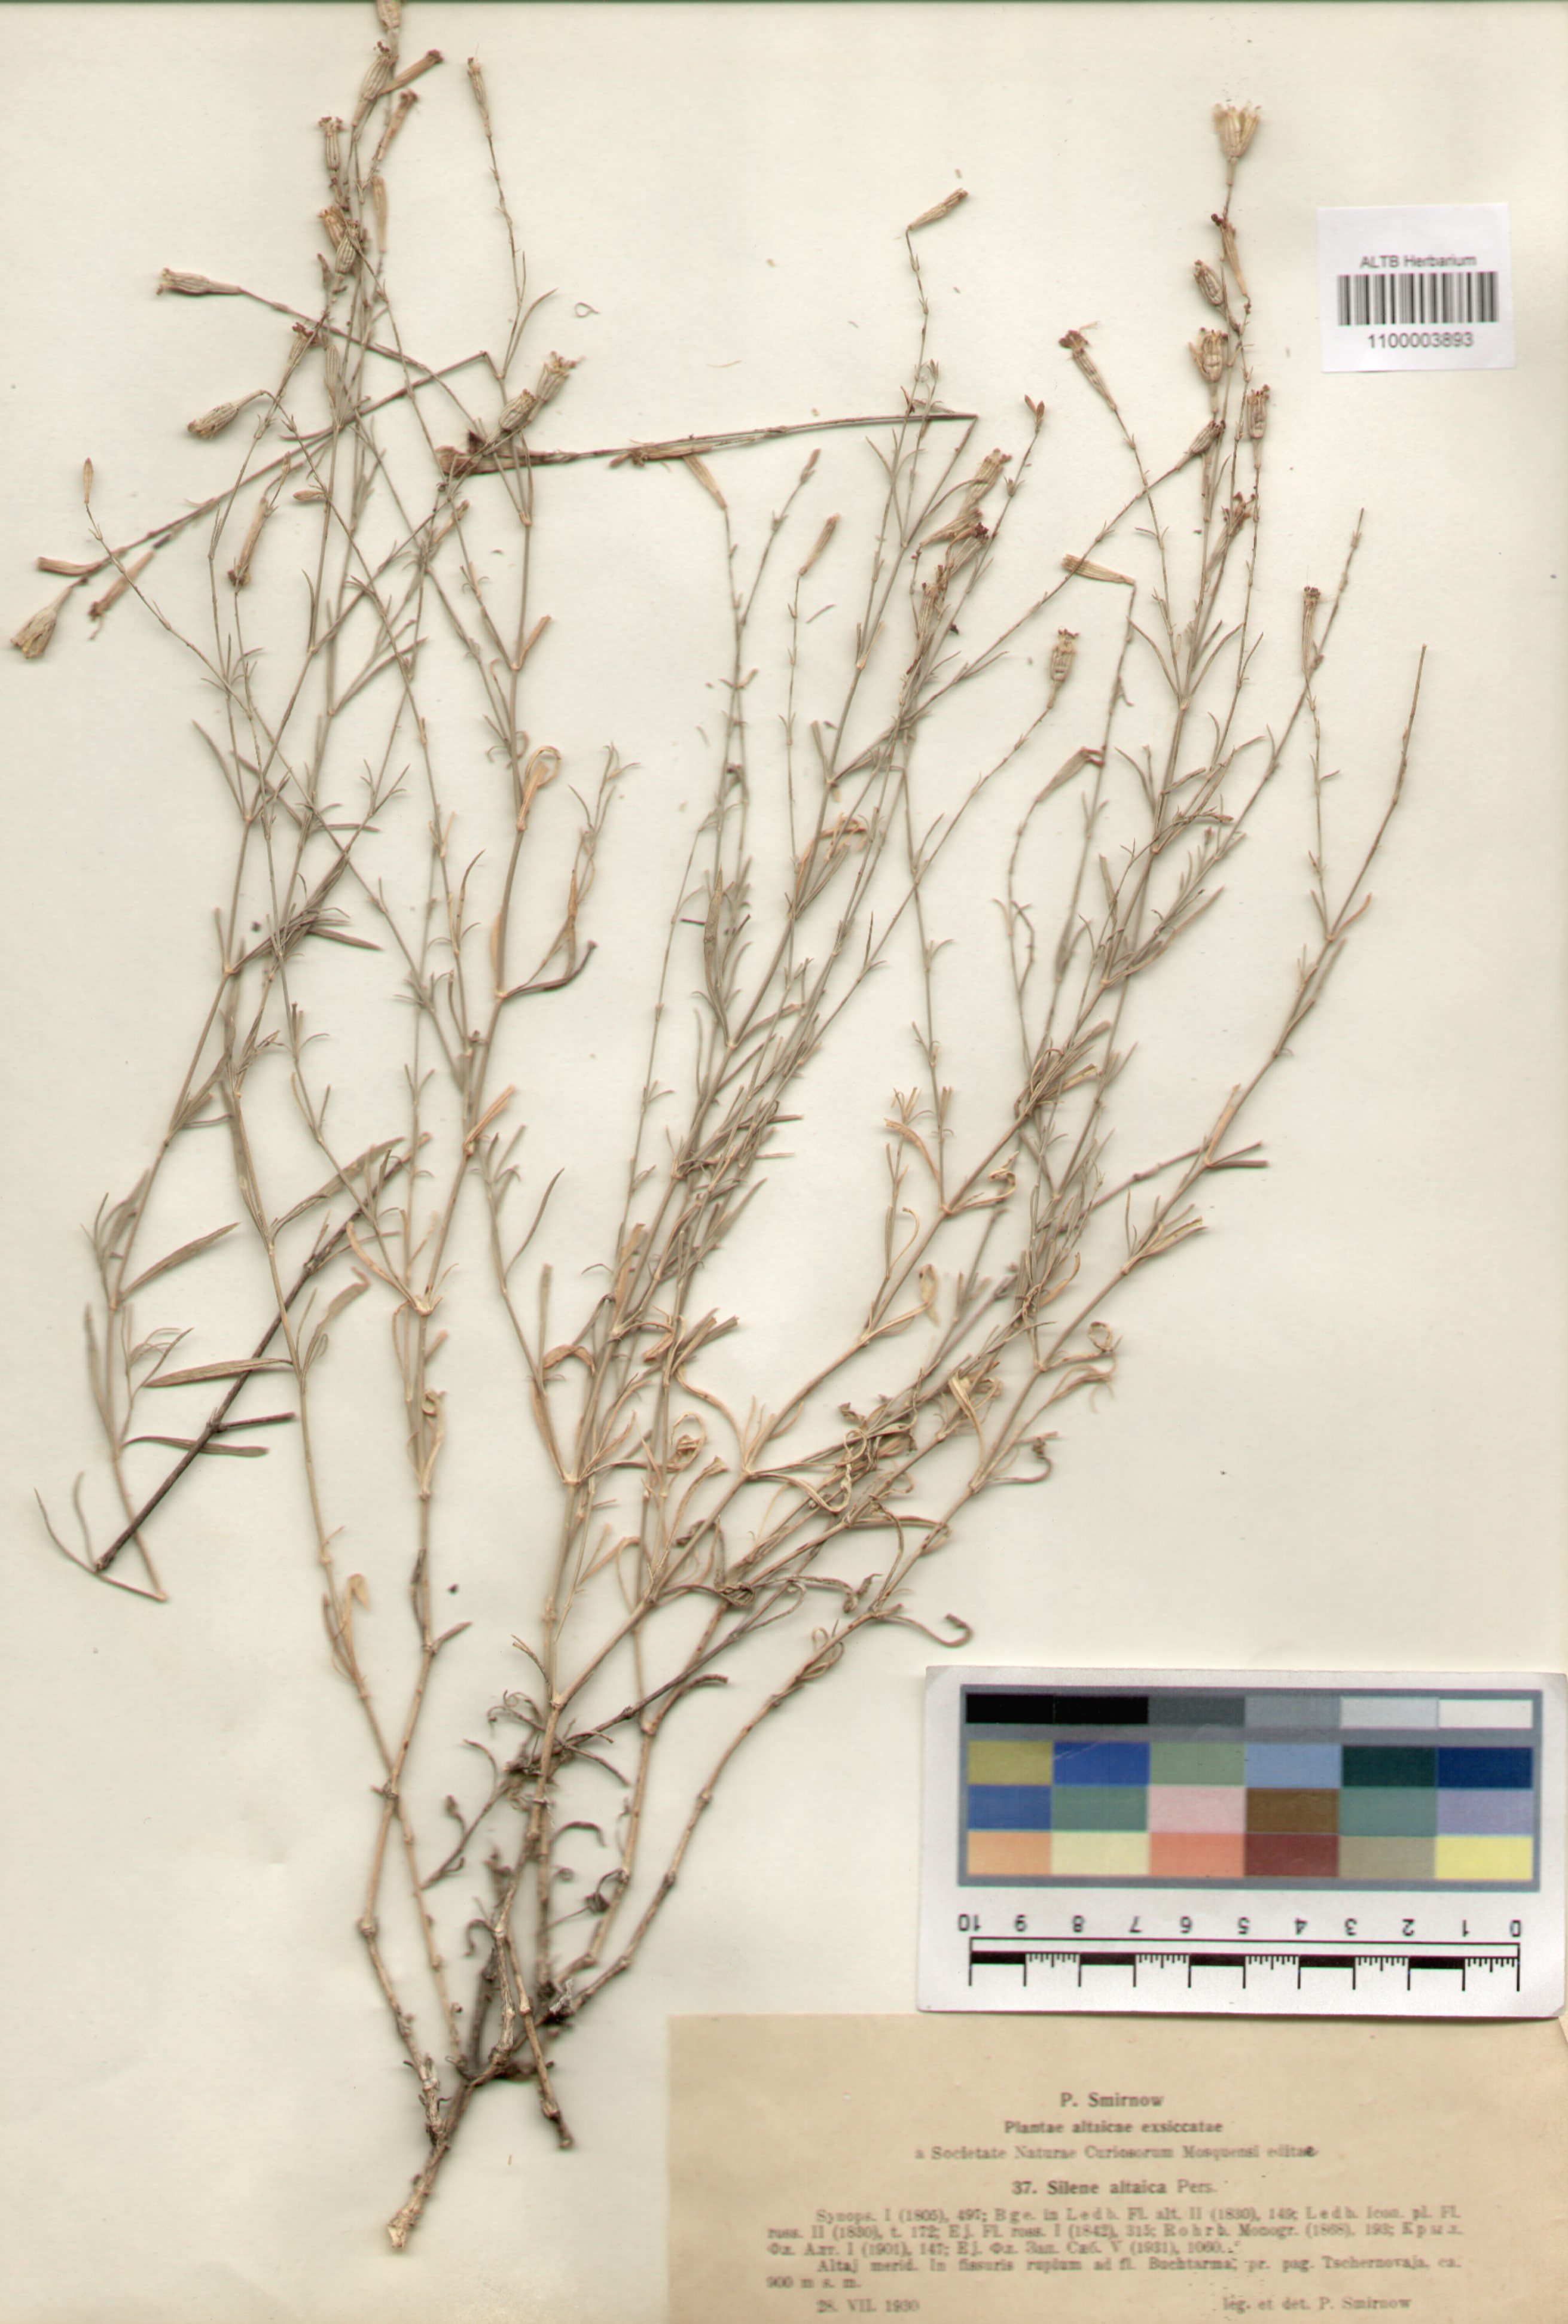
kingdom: Plantae
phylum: Tracheophyta
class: Magnoliopsida
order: Caryophyllales
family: Caryophyllaceae
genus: Silene
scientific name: Silene altaica
